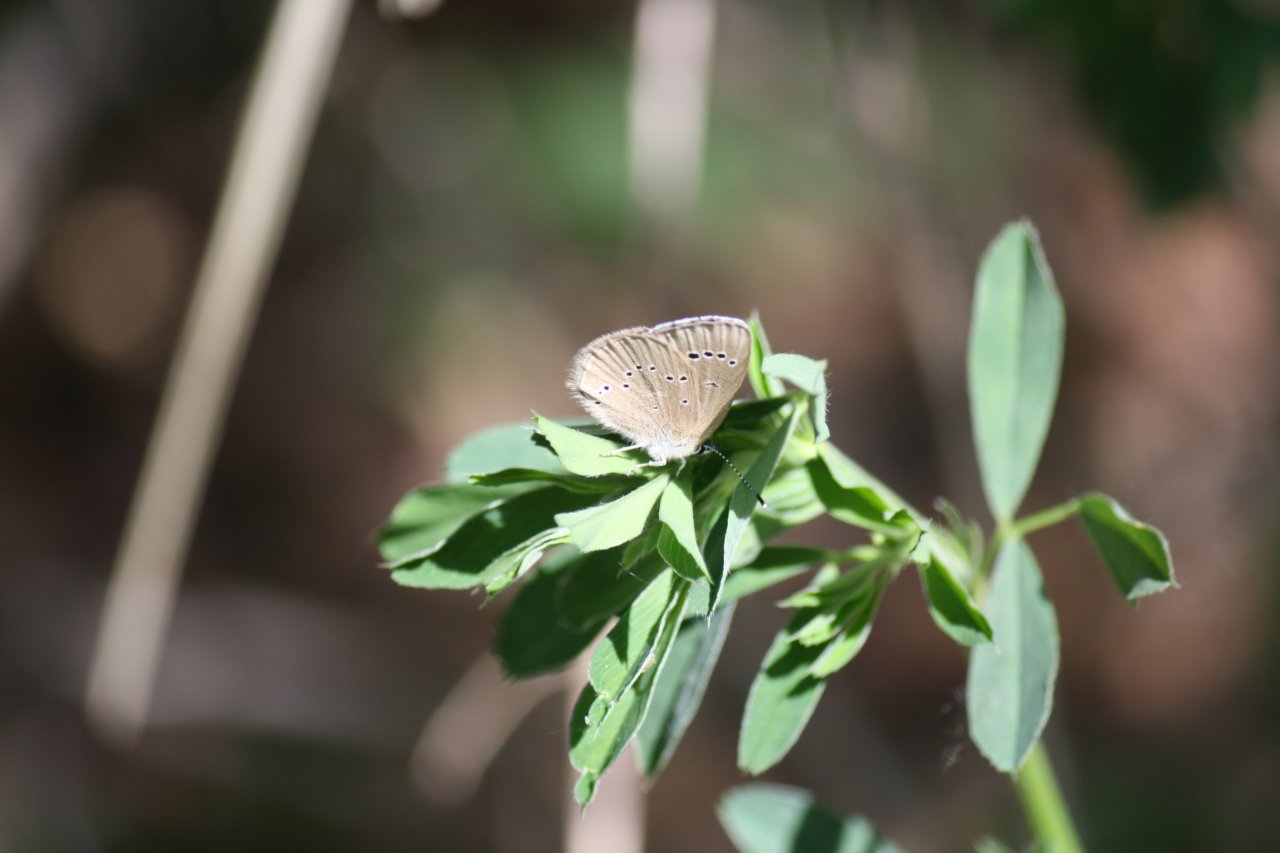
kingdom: Animalia
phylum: Arthropoda
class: Insecta
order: Lepidoptera
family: Lycaenidae
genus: Glaucopsyche
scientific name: Glaucopsyche lygdamus
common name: Silvery Blue
